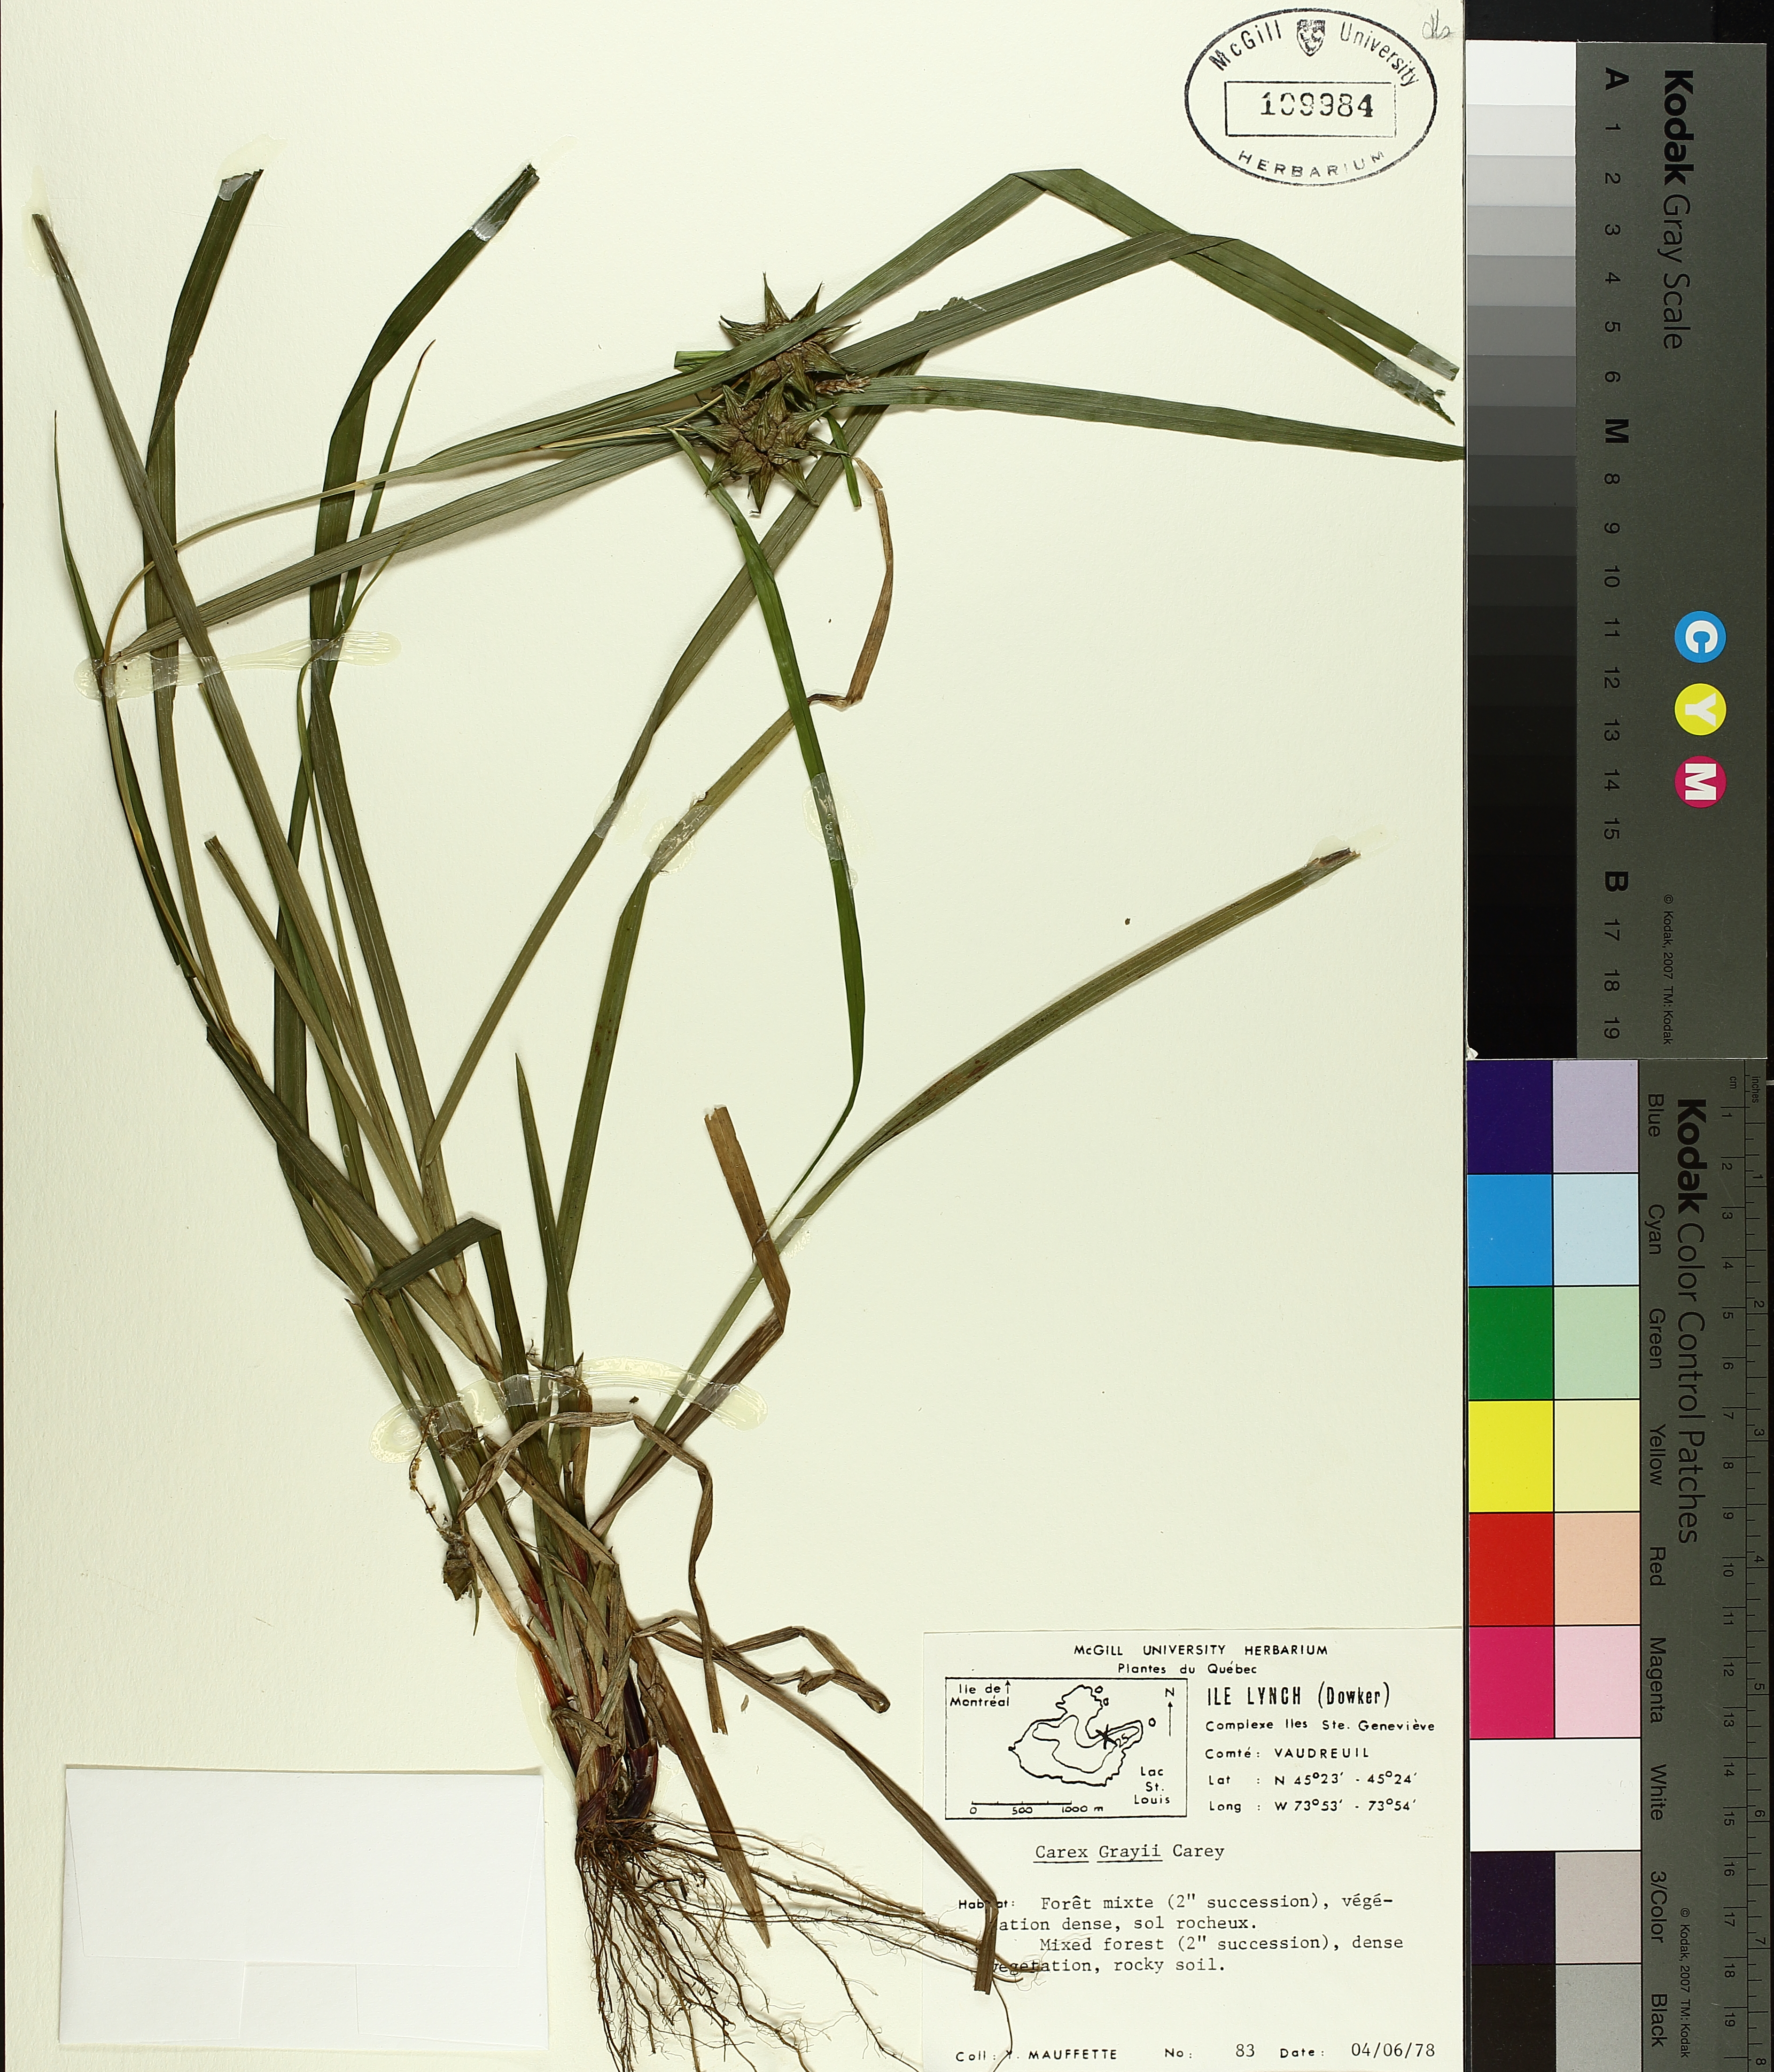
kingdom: Plantae
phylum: Tracheophyta
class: Liliopsida
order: Poales
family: Cyperaceae
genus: Carex
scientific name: Carex grayi
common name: Asa gray's sedge
